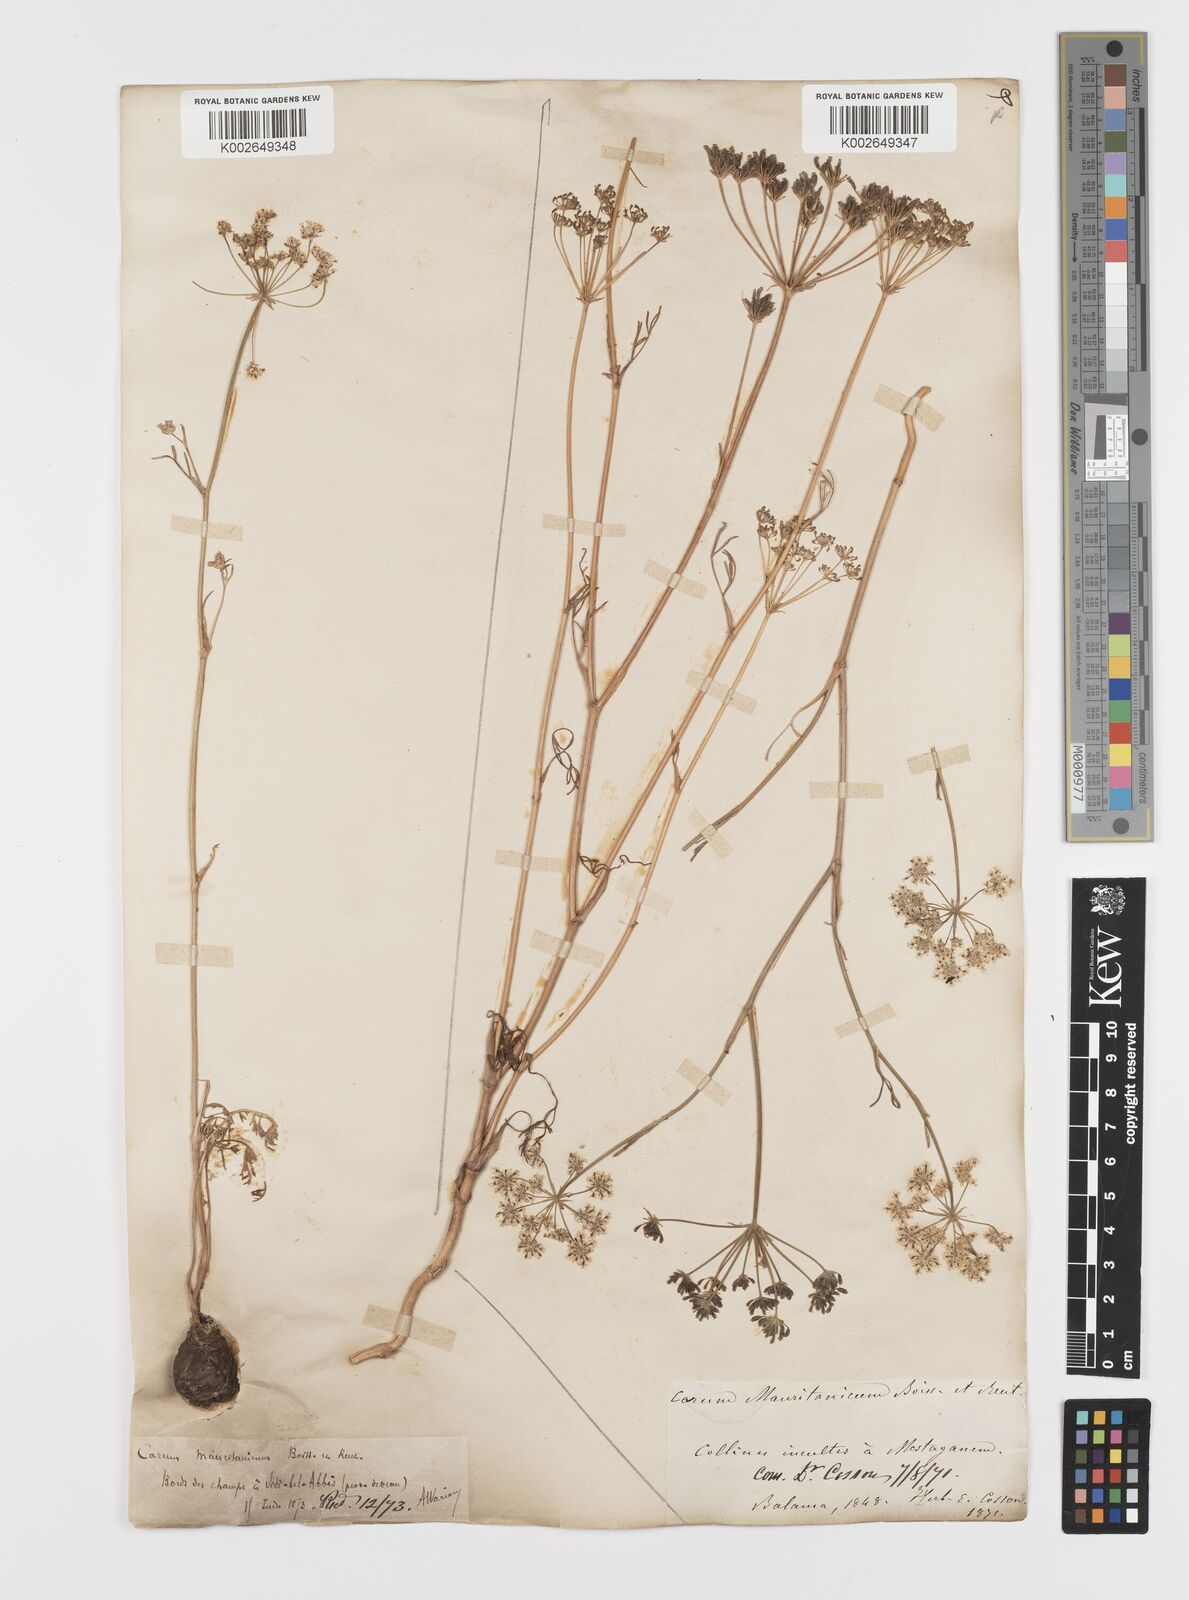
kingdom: Plantae
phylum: Tracheophyta
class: Magnoliopsida
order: Apiales
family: Apiaceae
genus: Bunium
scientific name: Bunium fontanesii
